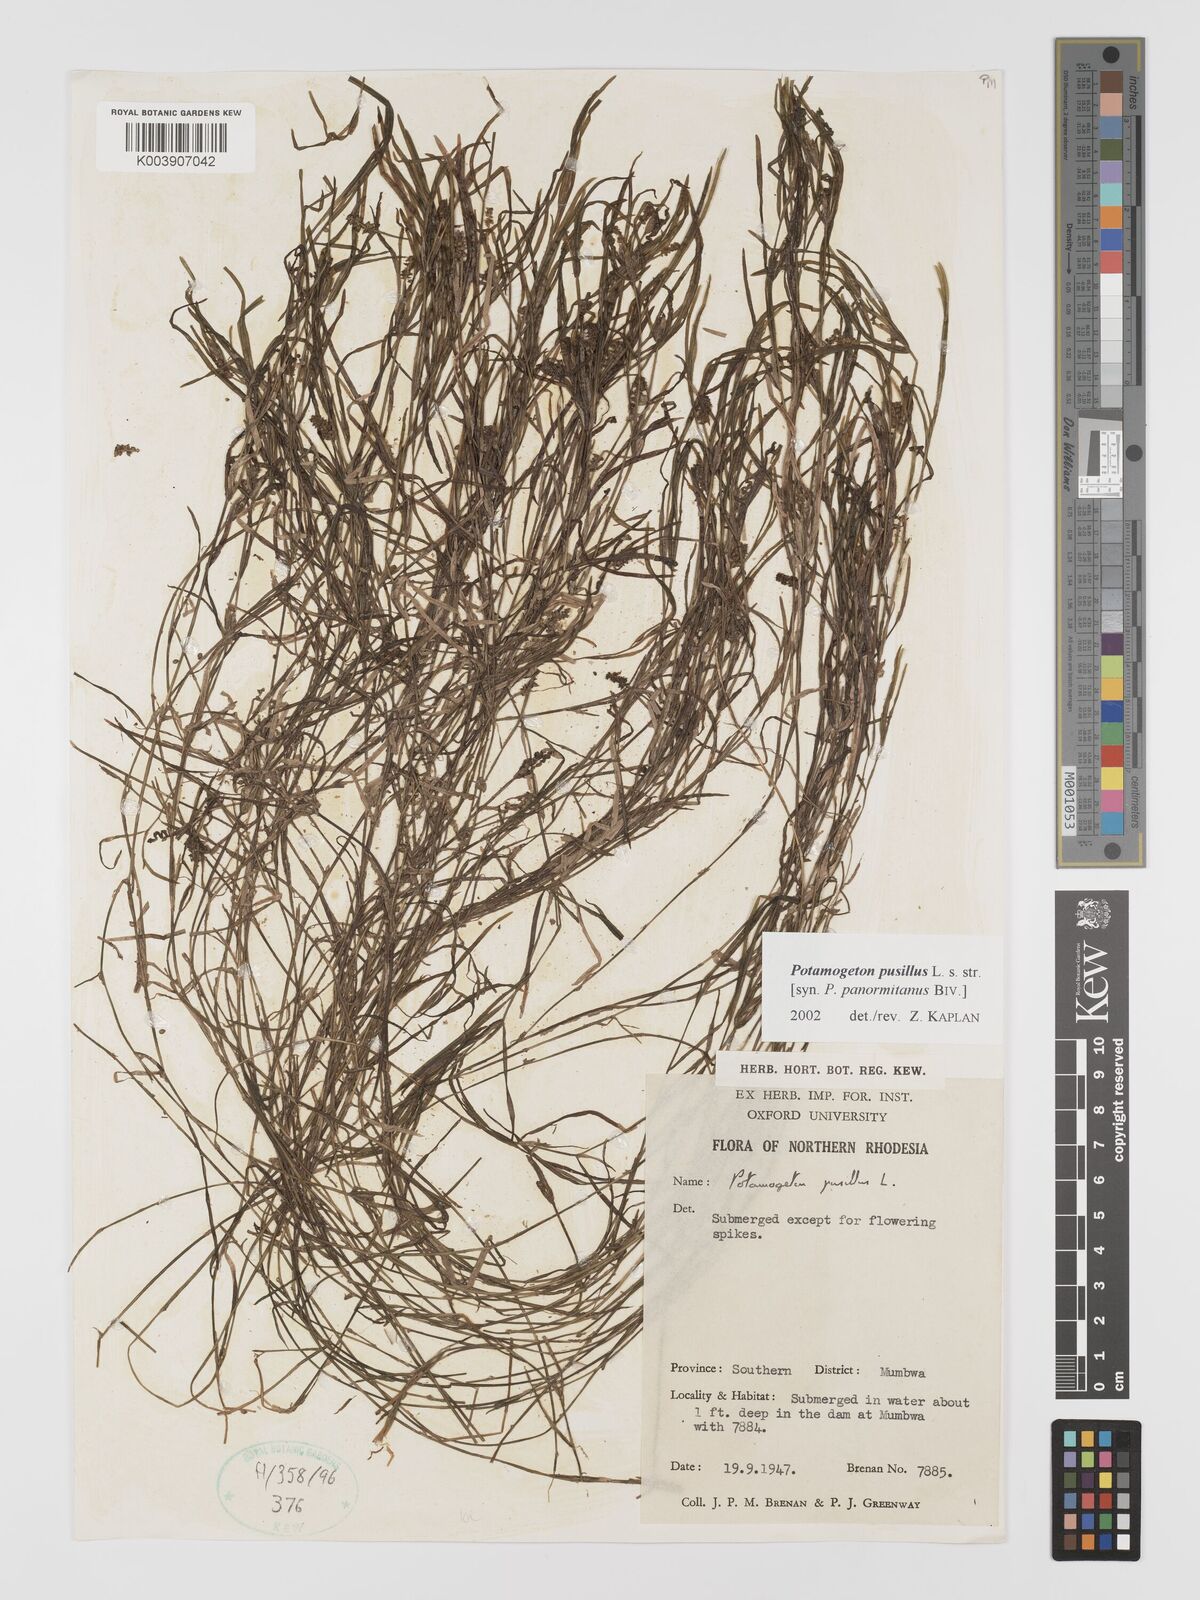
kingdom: Plantae
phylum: Tracheophyta
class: Liliopsida
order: Alismatales
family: Potamogetonaceae
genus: Potamogeton
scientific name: Potamogeton pusillus
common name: Lesser pondweed
